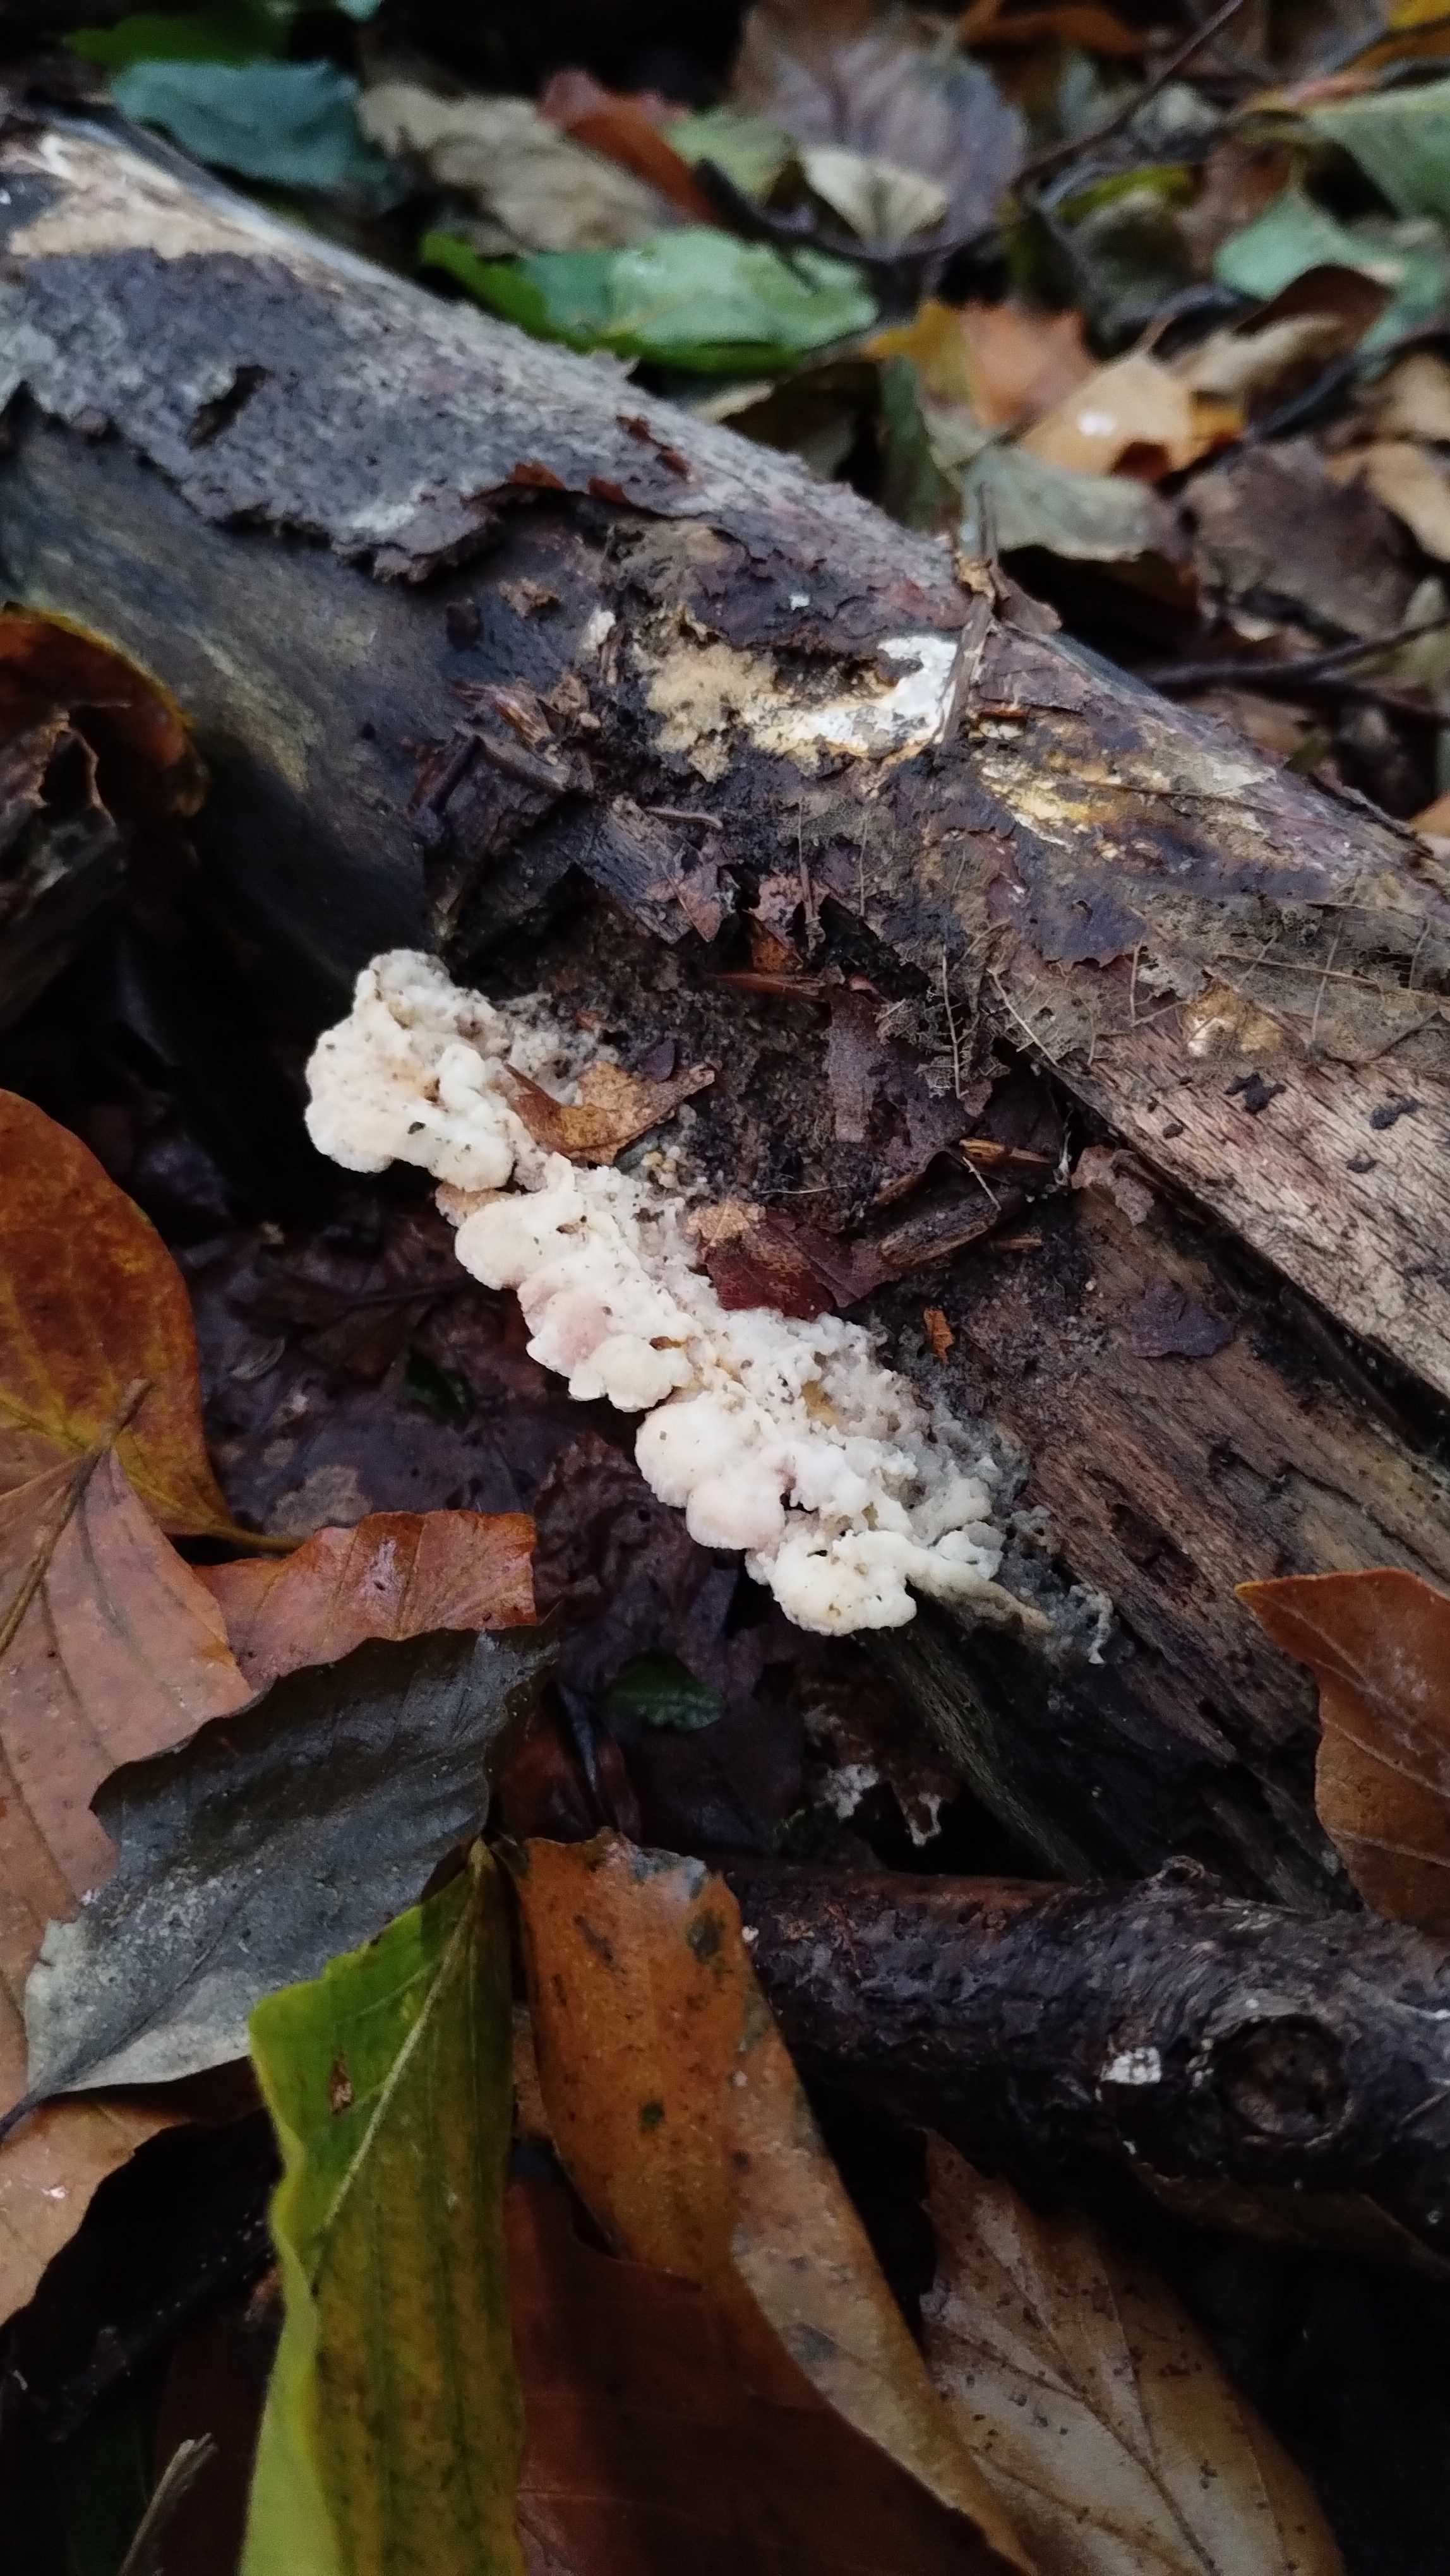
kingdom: Fungi
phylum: Basidiomycota
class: Agaricomycetes
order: Polyporales
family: Meruliaceae
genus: Phlebia
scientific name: Phlebia tremellosa
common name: bævrende åresvamp
